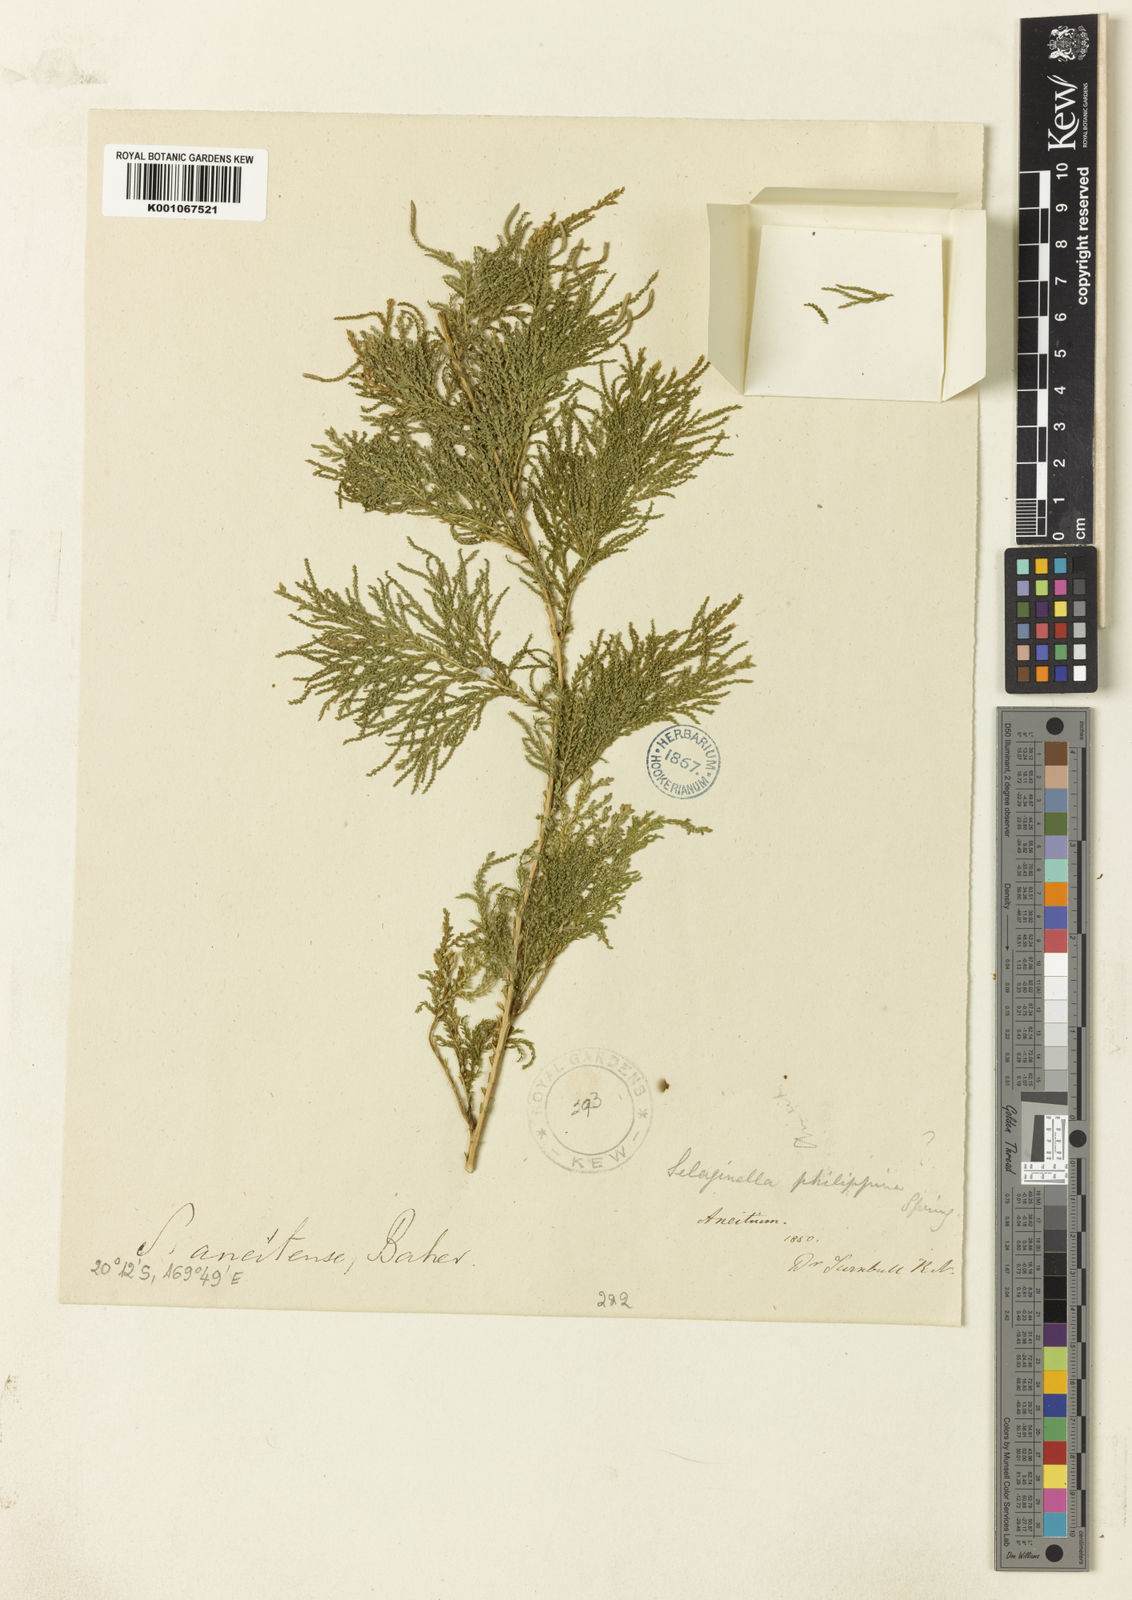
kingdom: Plantae
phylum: Tracheophyta
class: Lycopodiopsida
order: Selaginellales
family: Selaginellaceae
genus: Selaginella
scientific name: Selaginella
